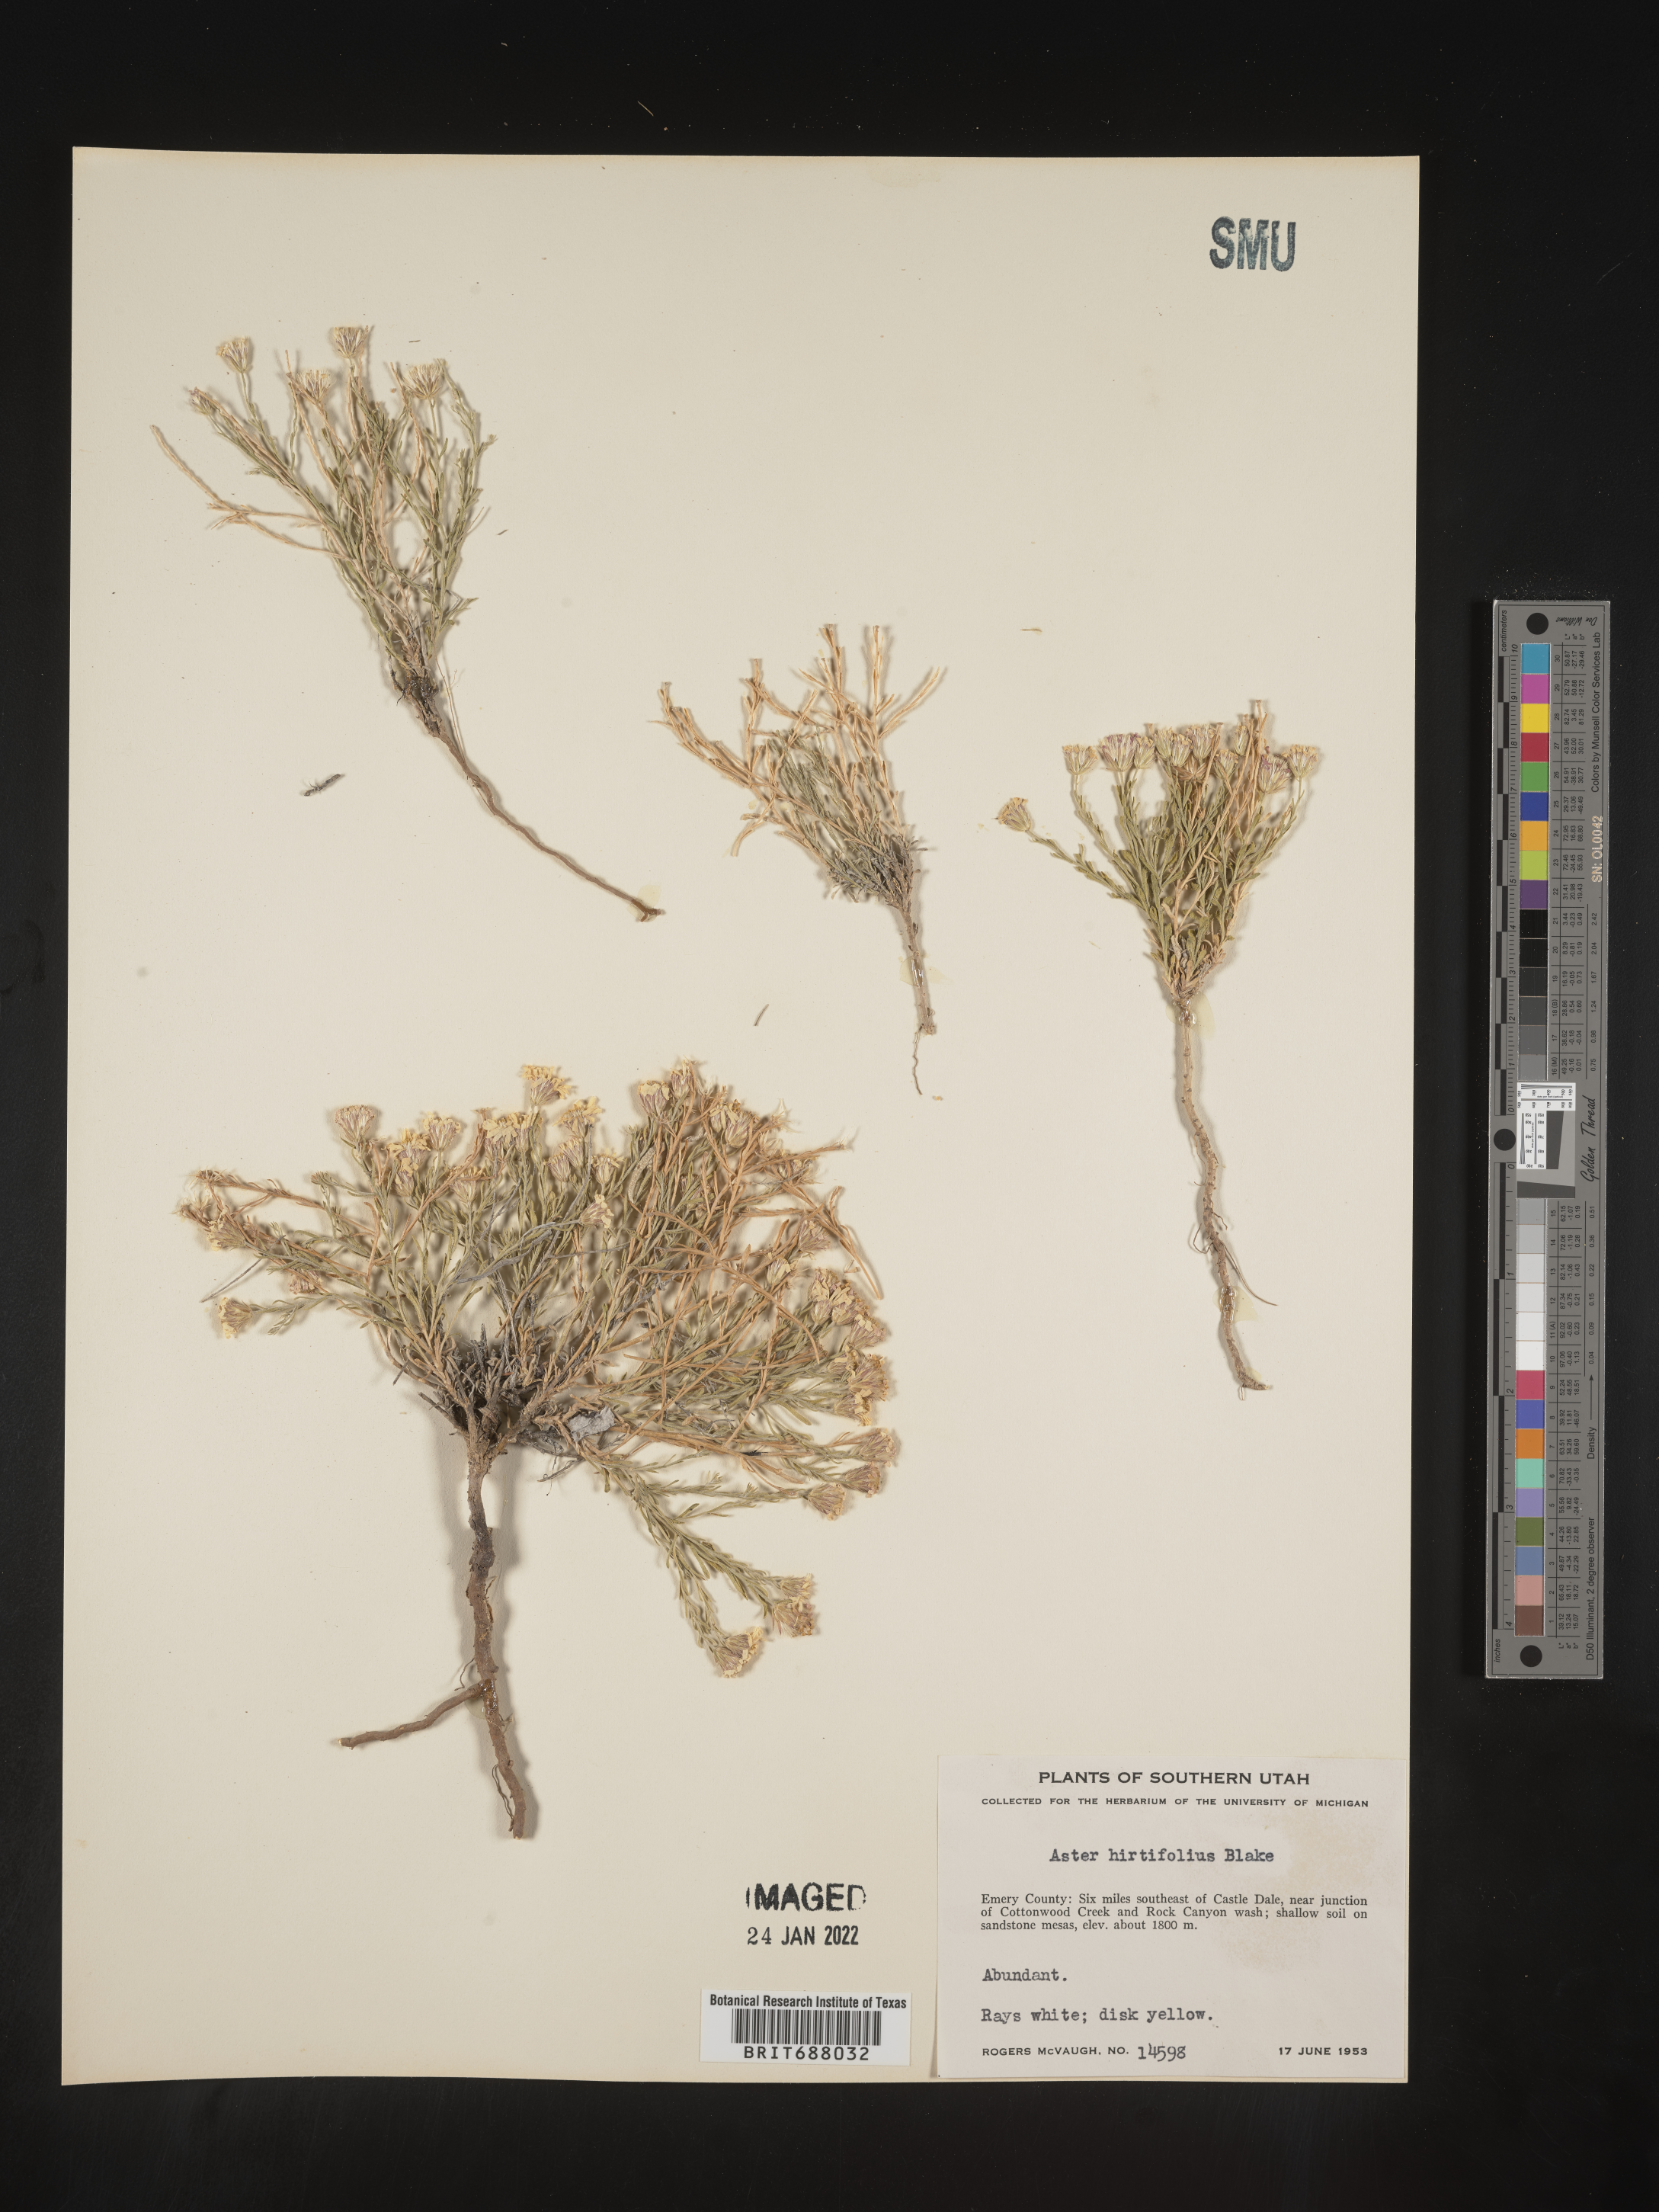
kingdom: Plantae
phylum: Tracheophyta
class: Magnoliopsida
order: Asterales
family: Asteraceae
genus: Chaetopappa
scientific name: Chaetopappa ericoides
